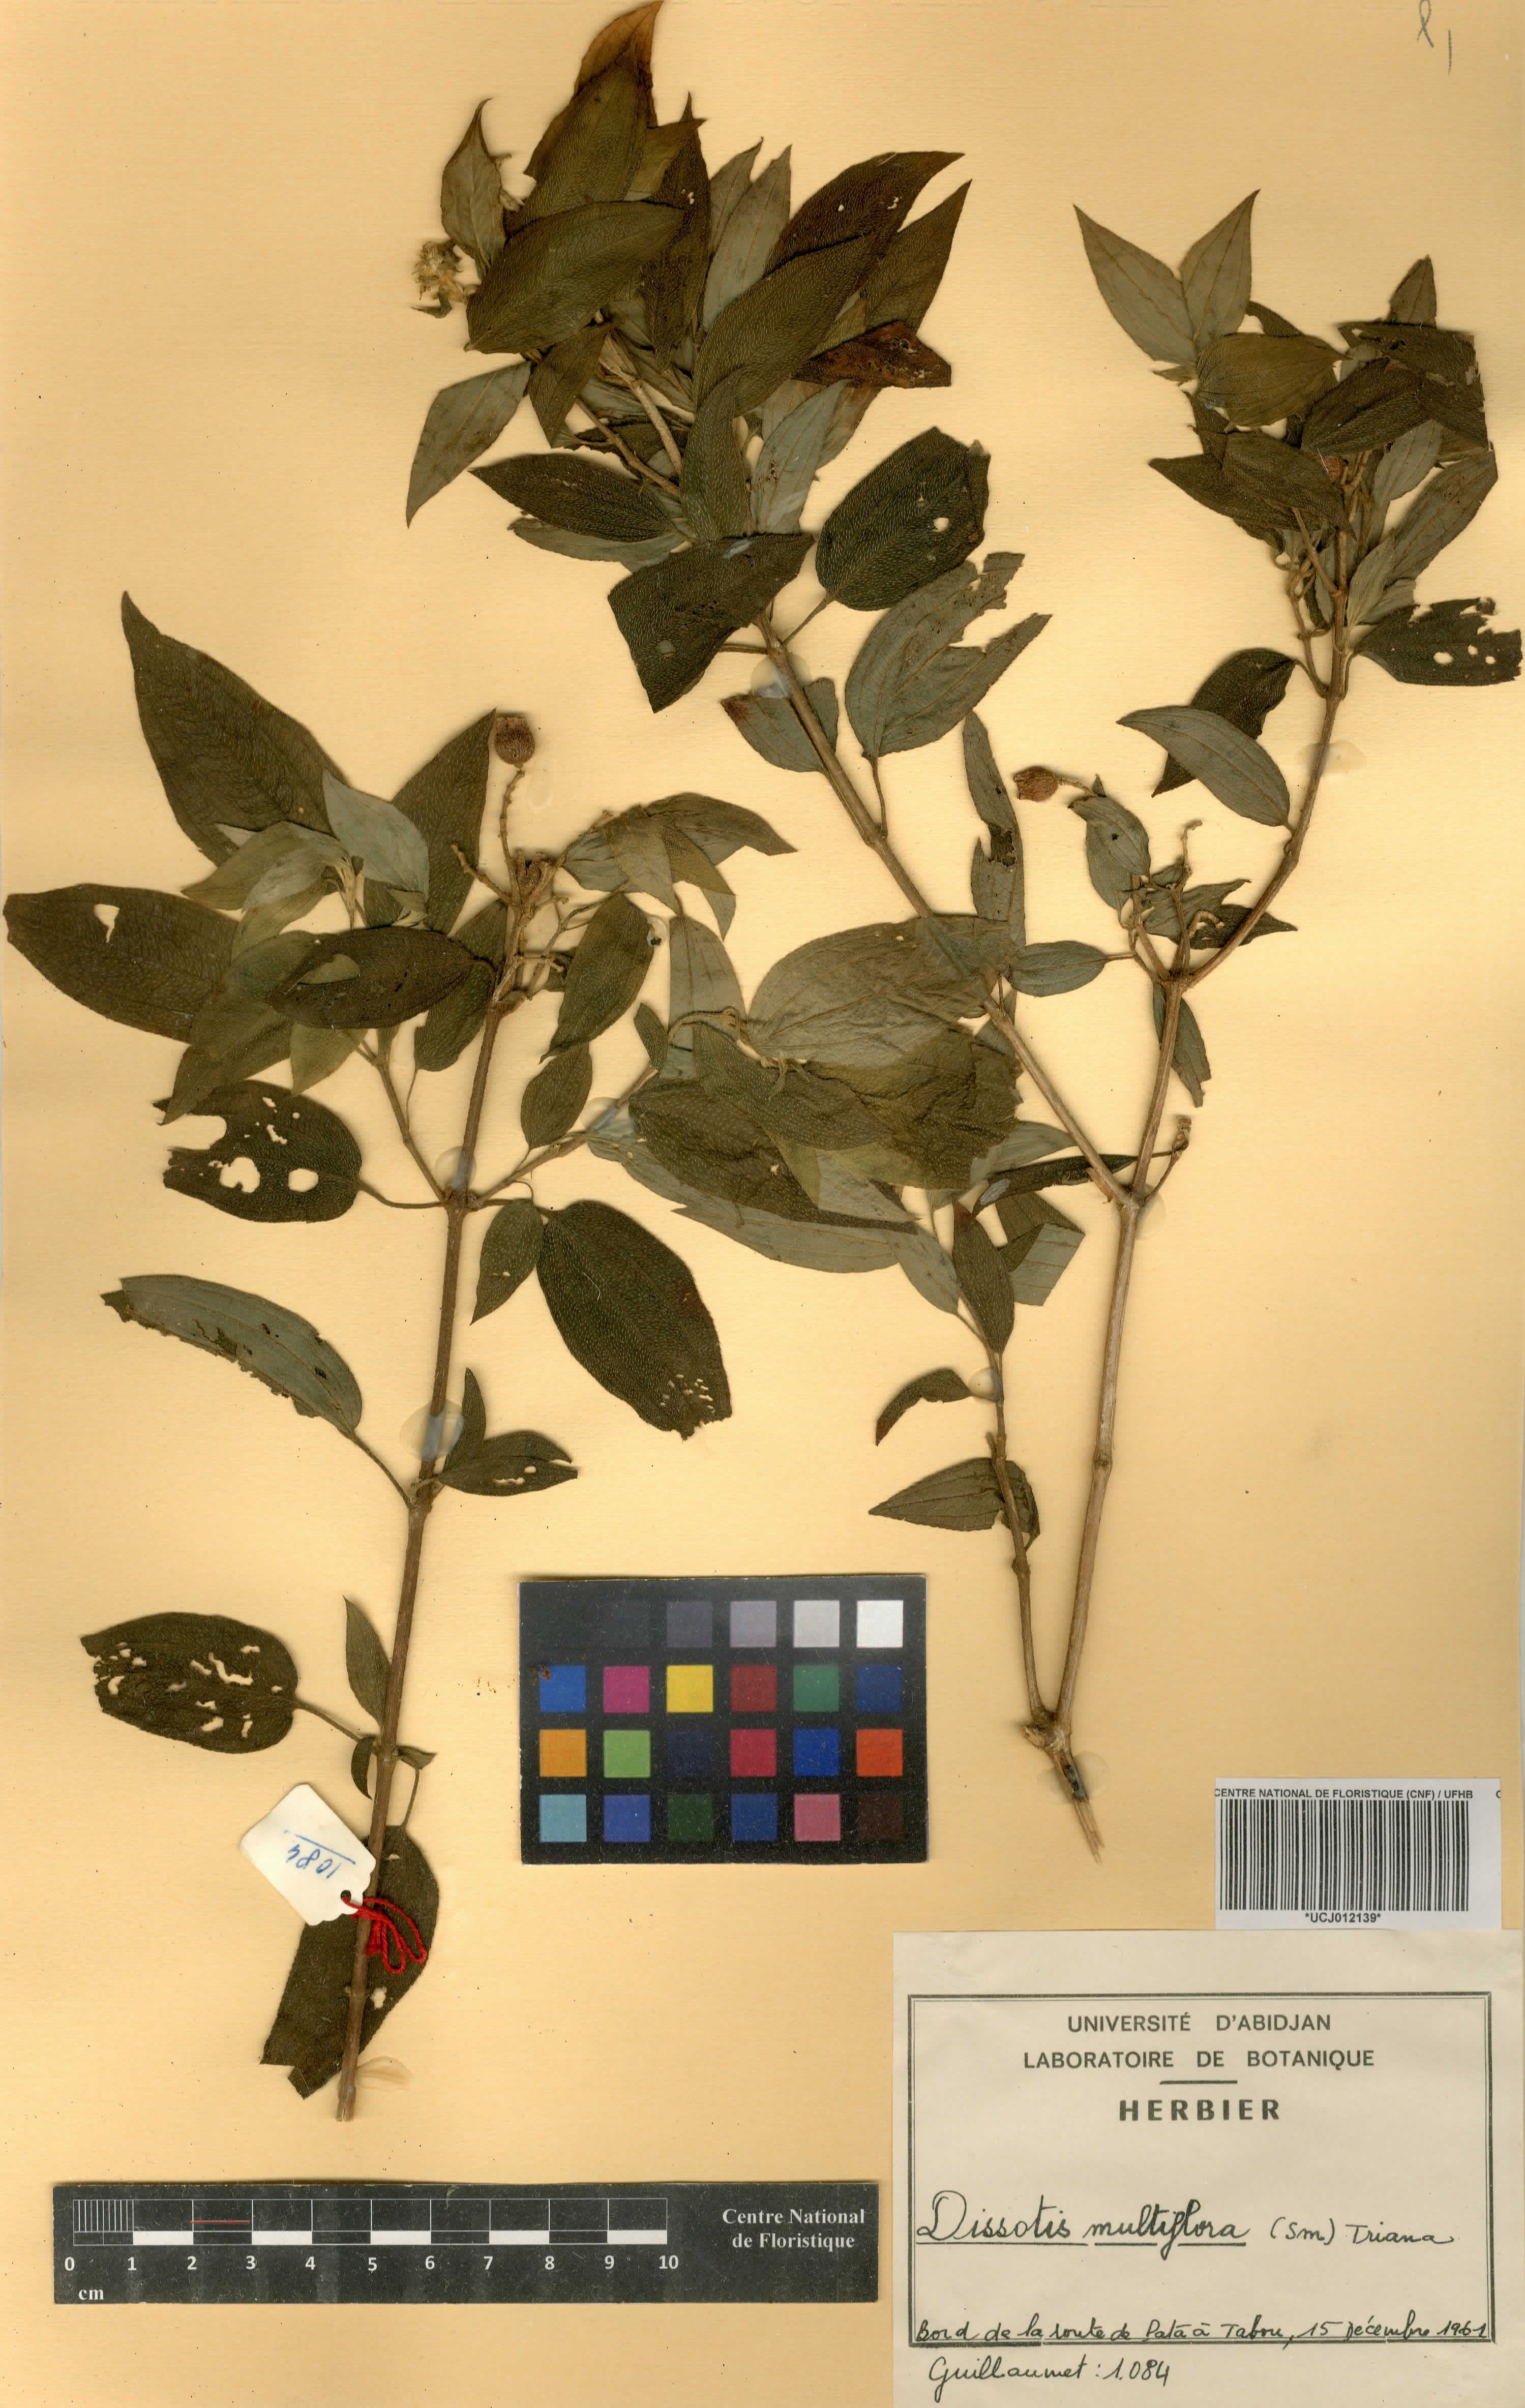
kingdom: Plantae
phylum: Tracheophyta
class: Magnoliopsida
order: Myrtales
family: Melastomataceae
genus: Dupineta
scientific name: Dupineta multiflora
